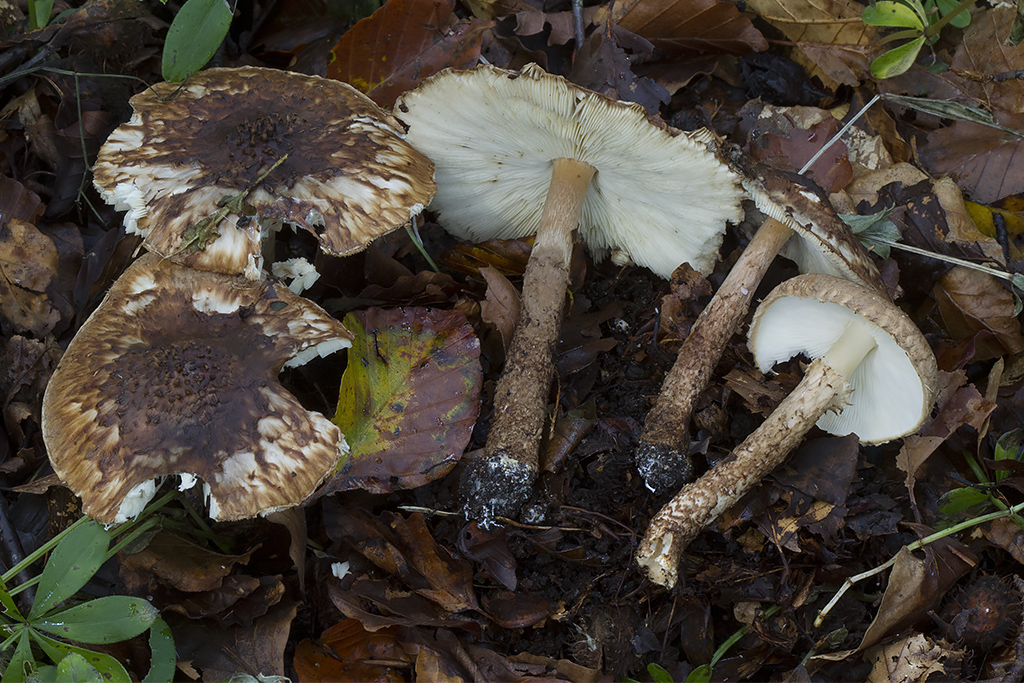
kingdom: Fungi
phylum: Basidiomycota
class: Agaricomycetes
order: Agaricales
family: Agaricaceae
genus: Echinoderma
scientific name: Echinoderma calcicola
